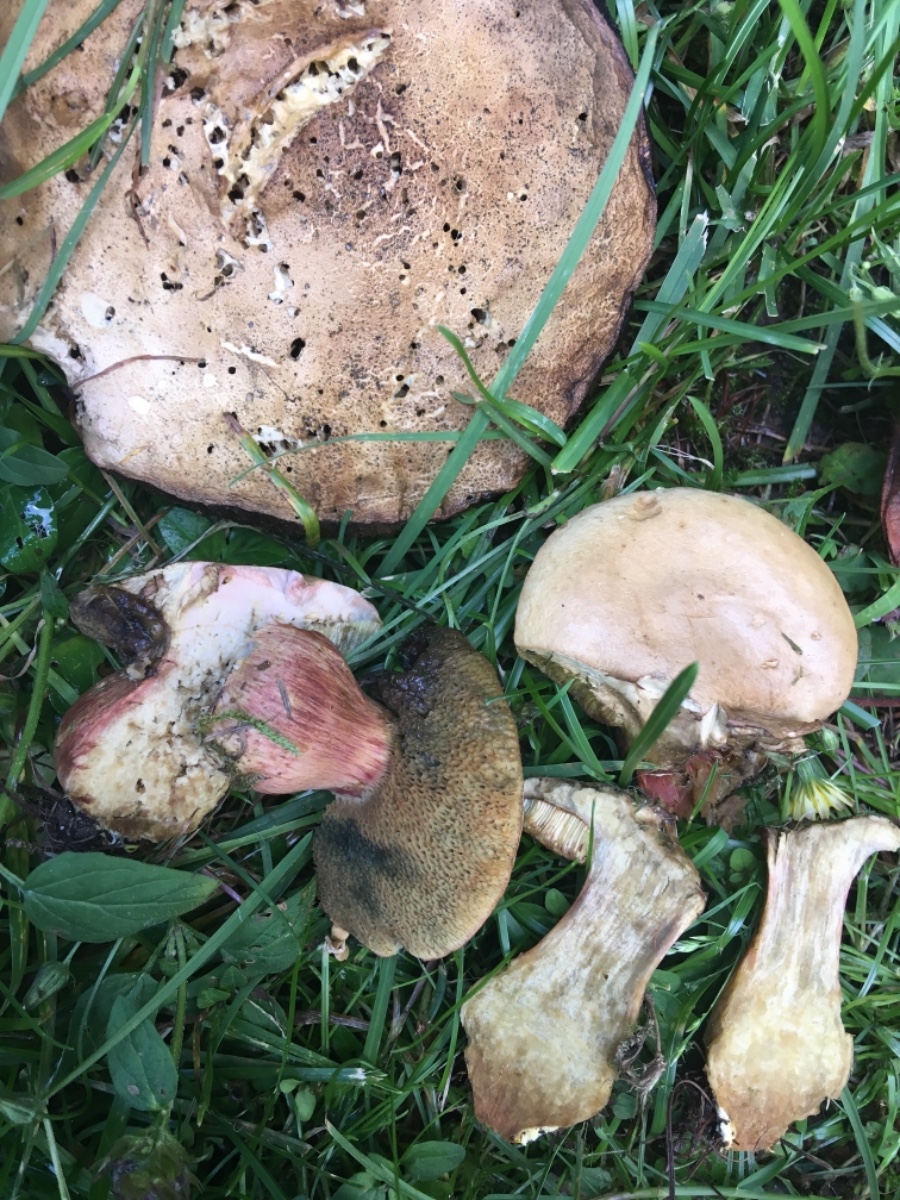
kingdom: Fungi
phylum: Basidiomycota
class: Agaricomycetes
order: Boletales
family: Boletaceae
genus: Hortiboletus
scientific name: Hortiboletus bubalinus
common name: aurora-rørhat
